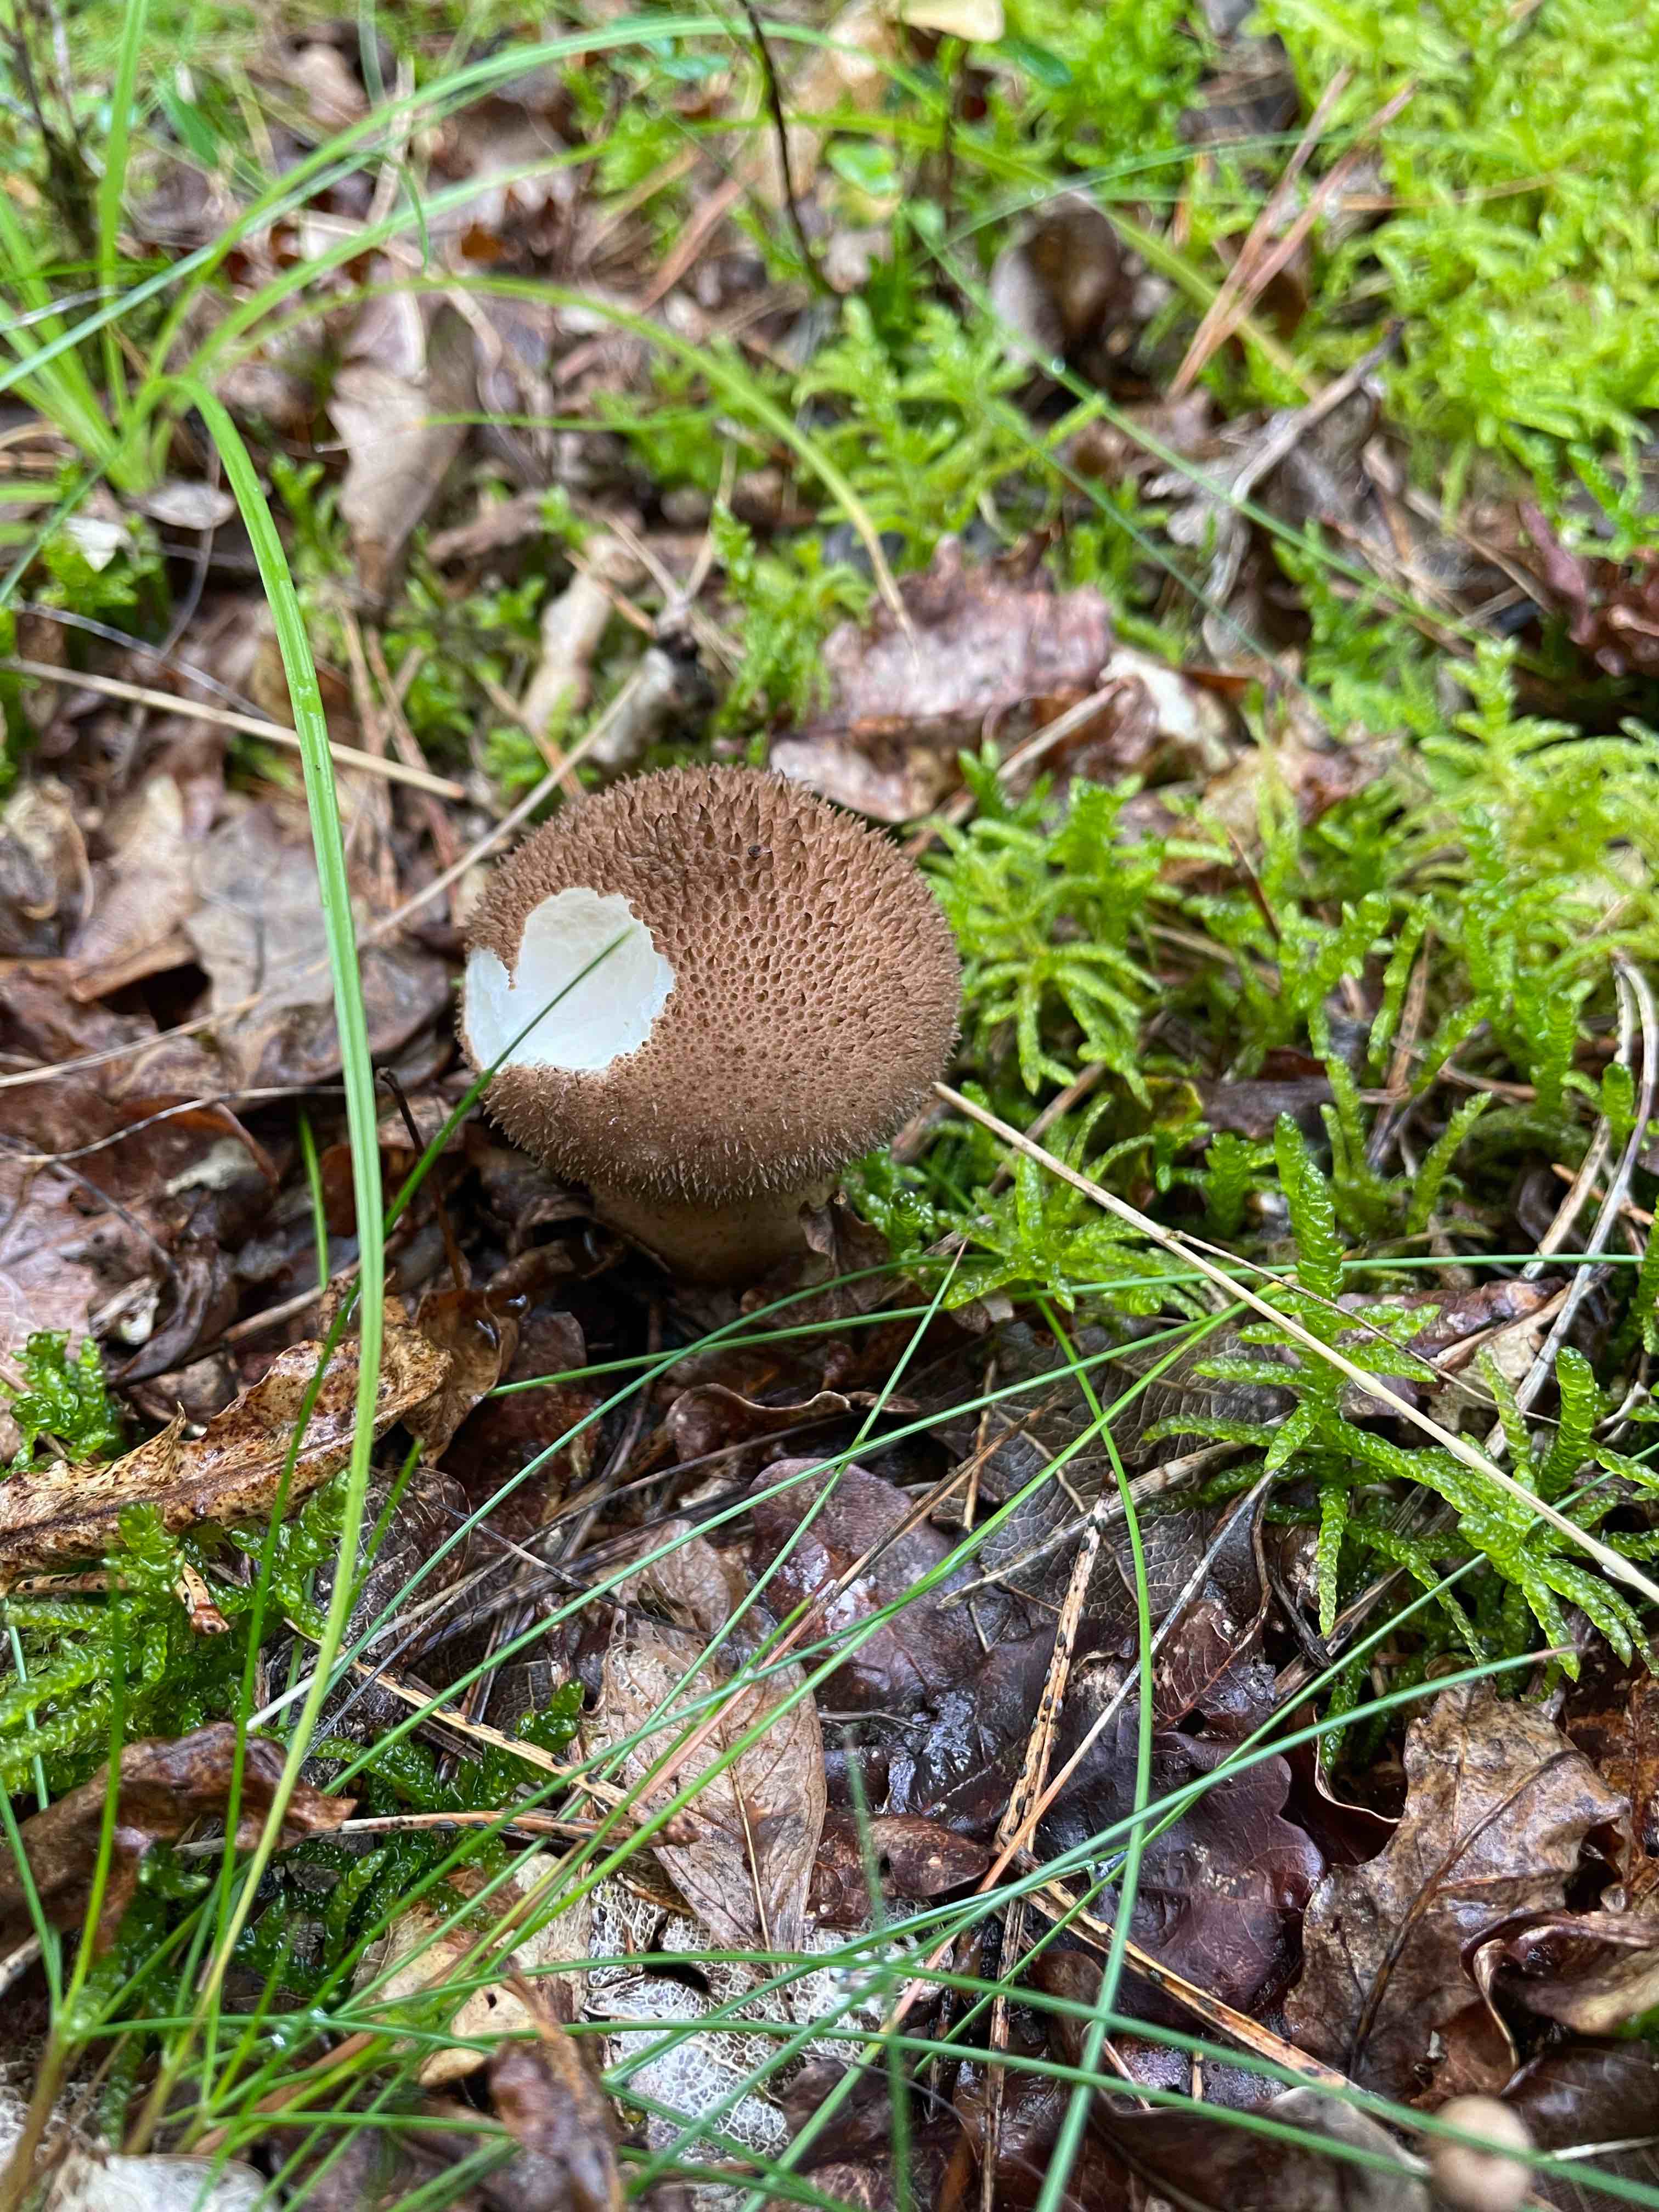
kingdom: Fungi
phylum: Basidiomycota
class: Agaricomycetes
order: Agaricales
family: Lycoperdaceae
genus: Lycoperdon
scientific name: Lycoperdon nigrescens
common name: sortagtig støvbold
